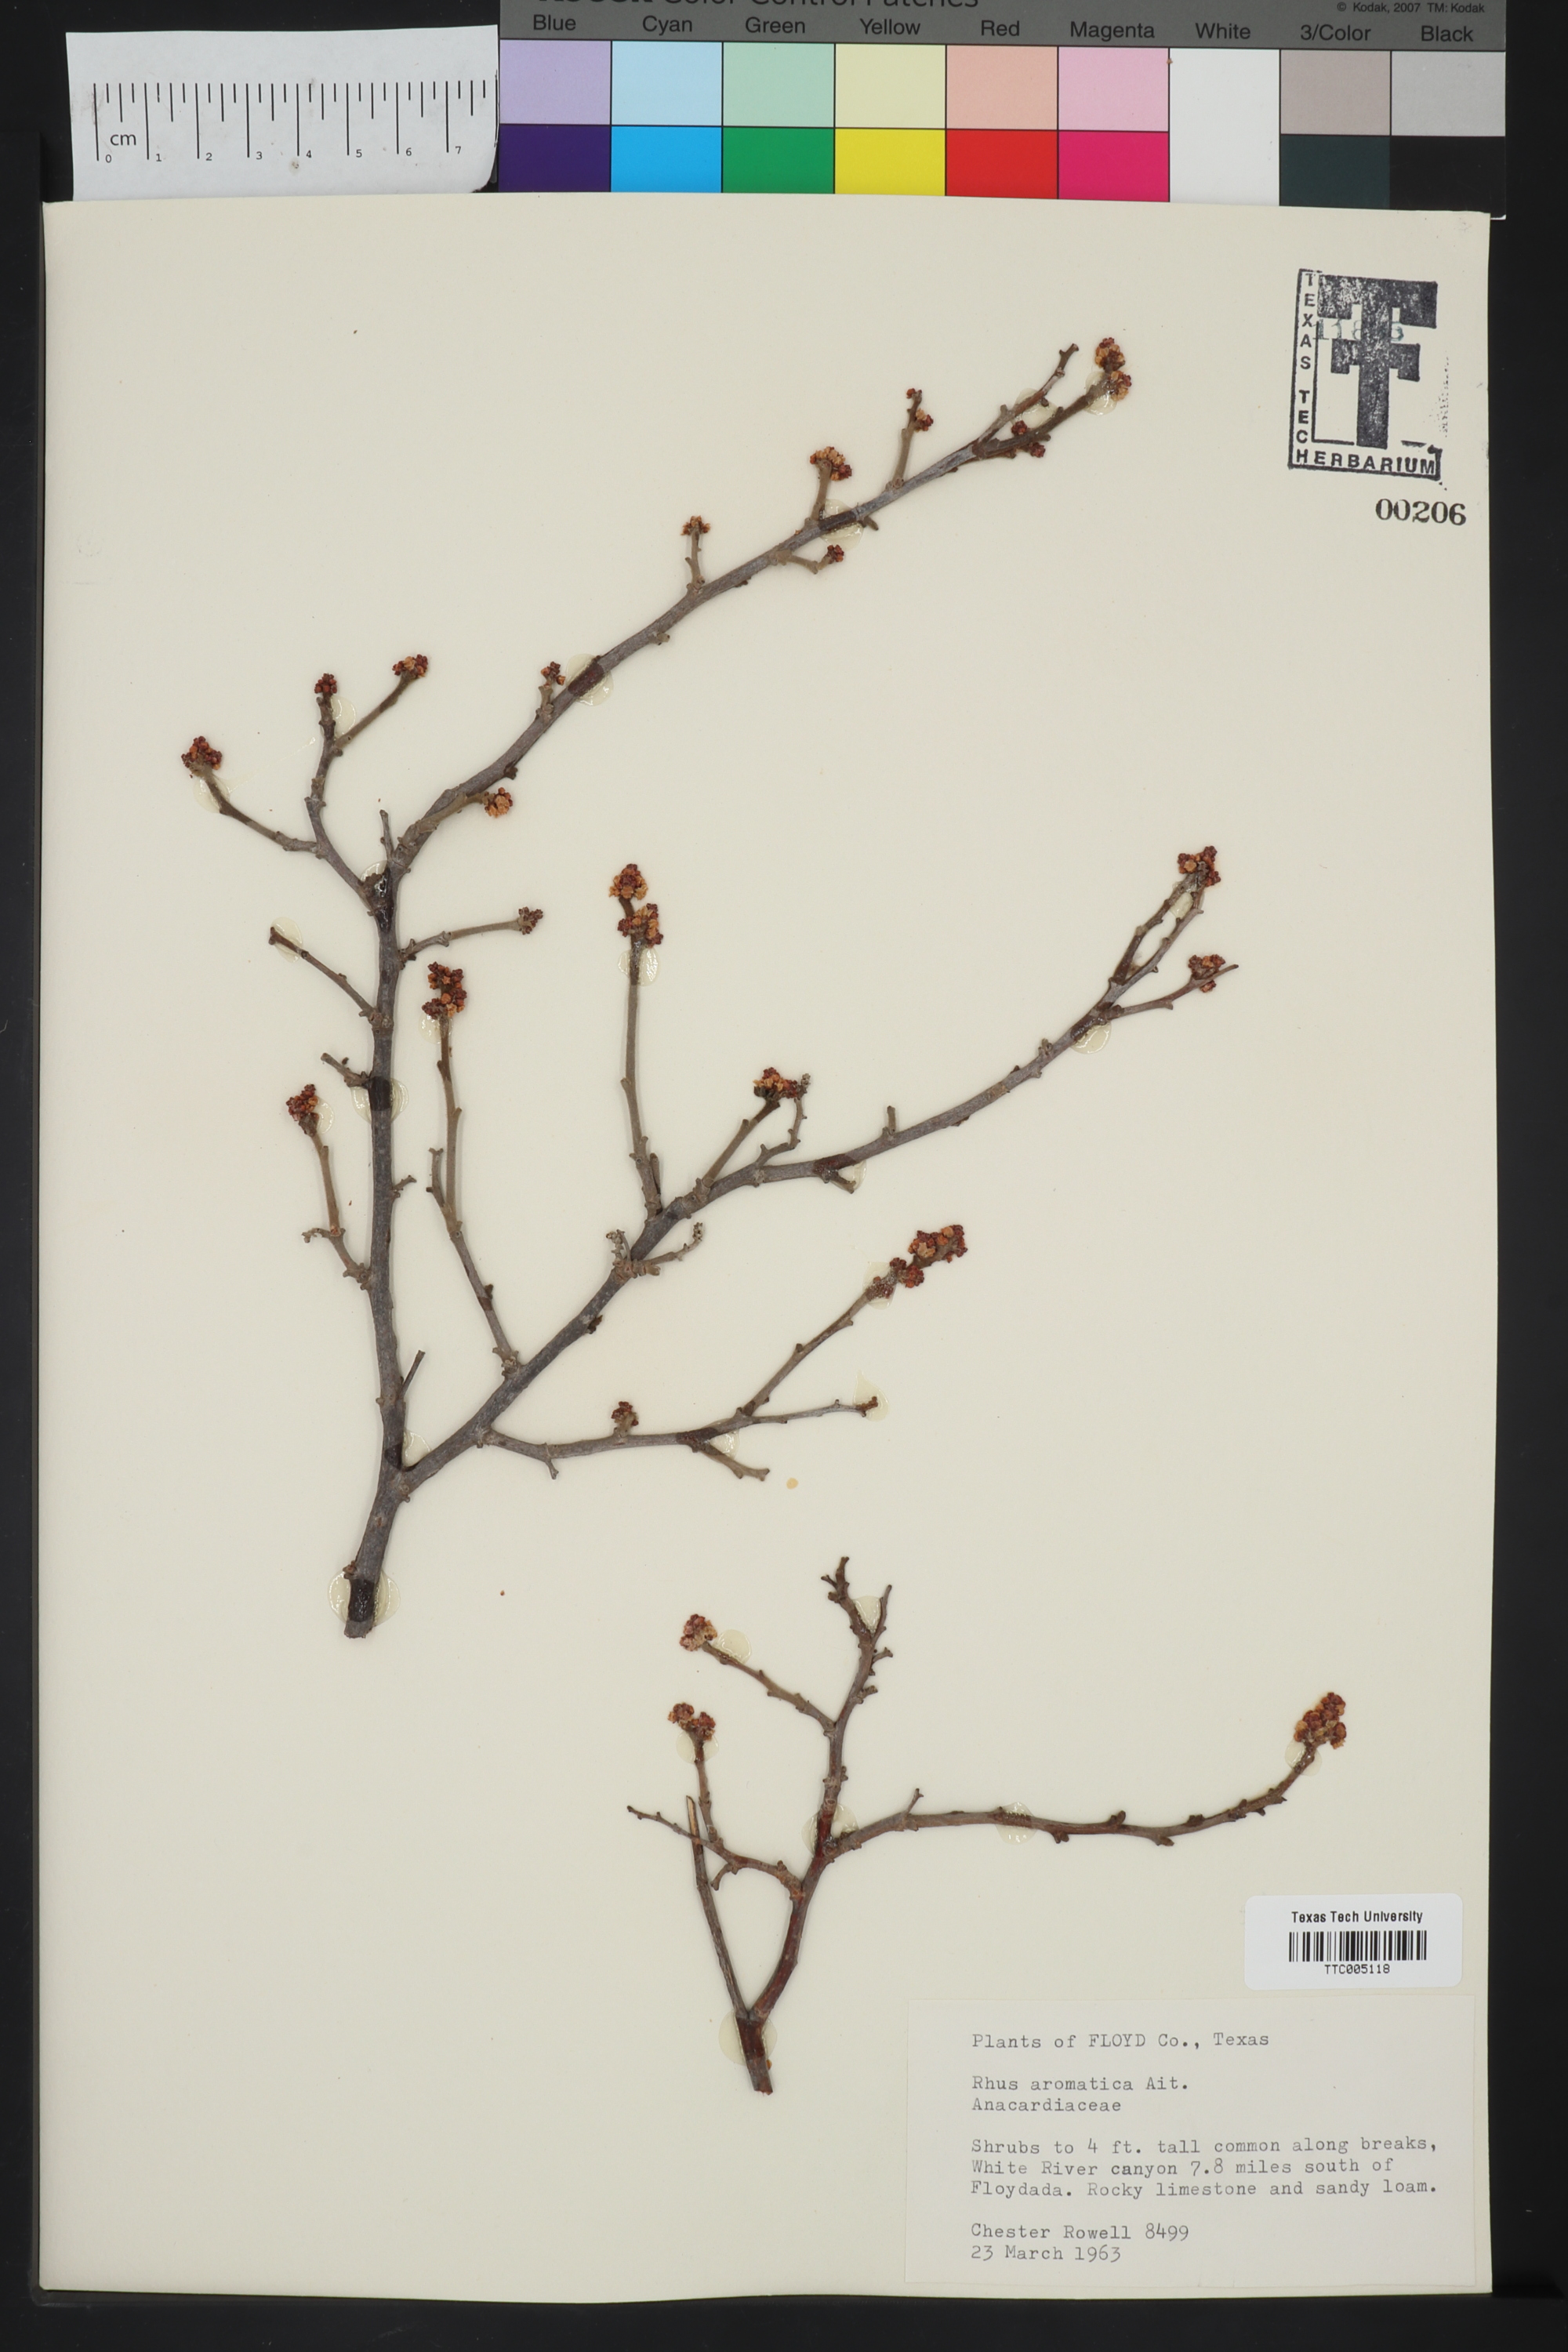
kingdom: Plantae
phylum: Tracheophyta
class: Magnoliopsida
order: Sapindales
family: Anacardiaceae
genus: Rhus
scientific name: Rhus aromatica
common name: Aromatic sumac
